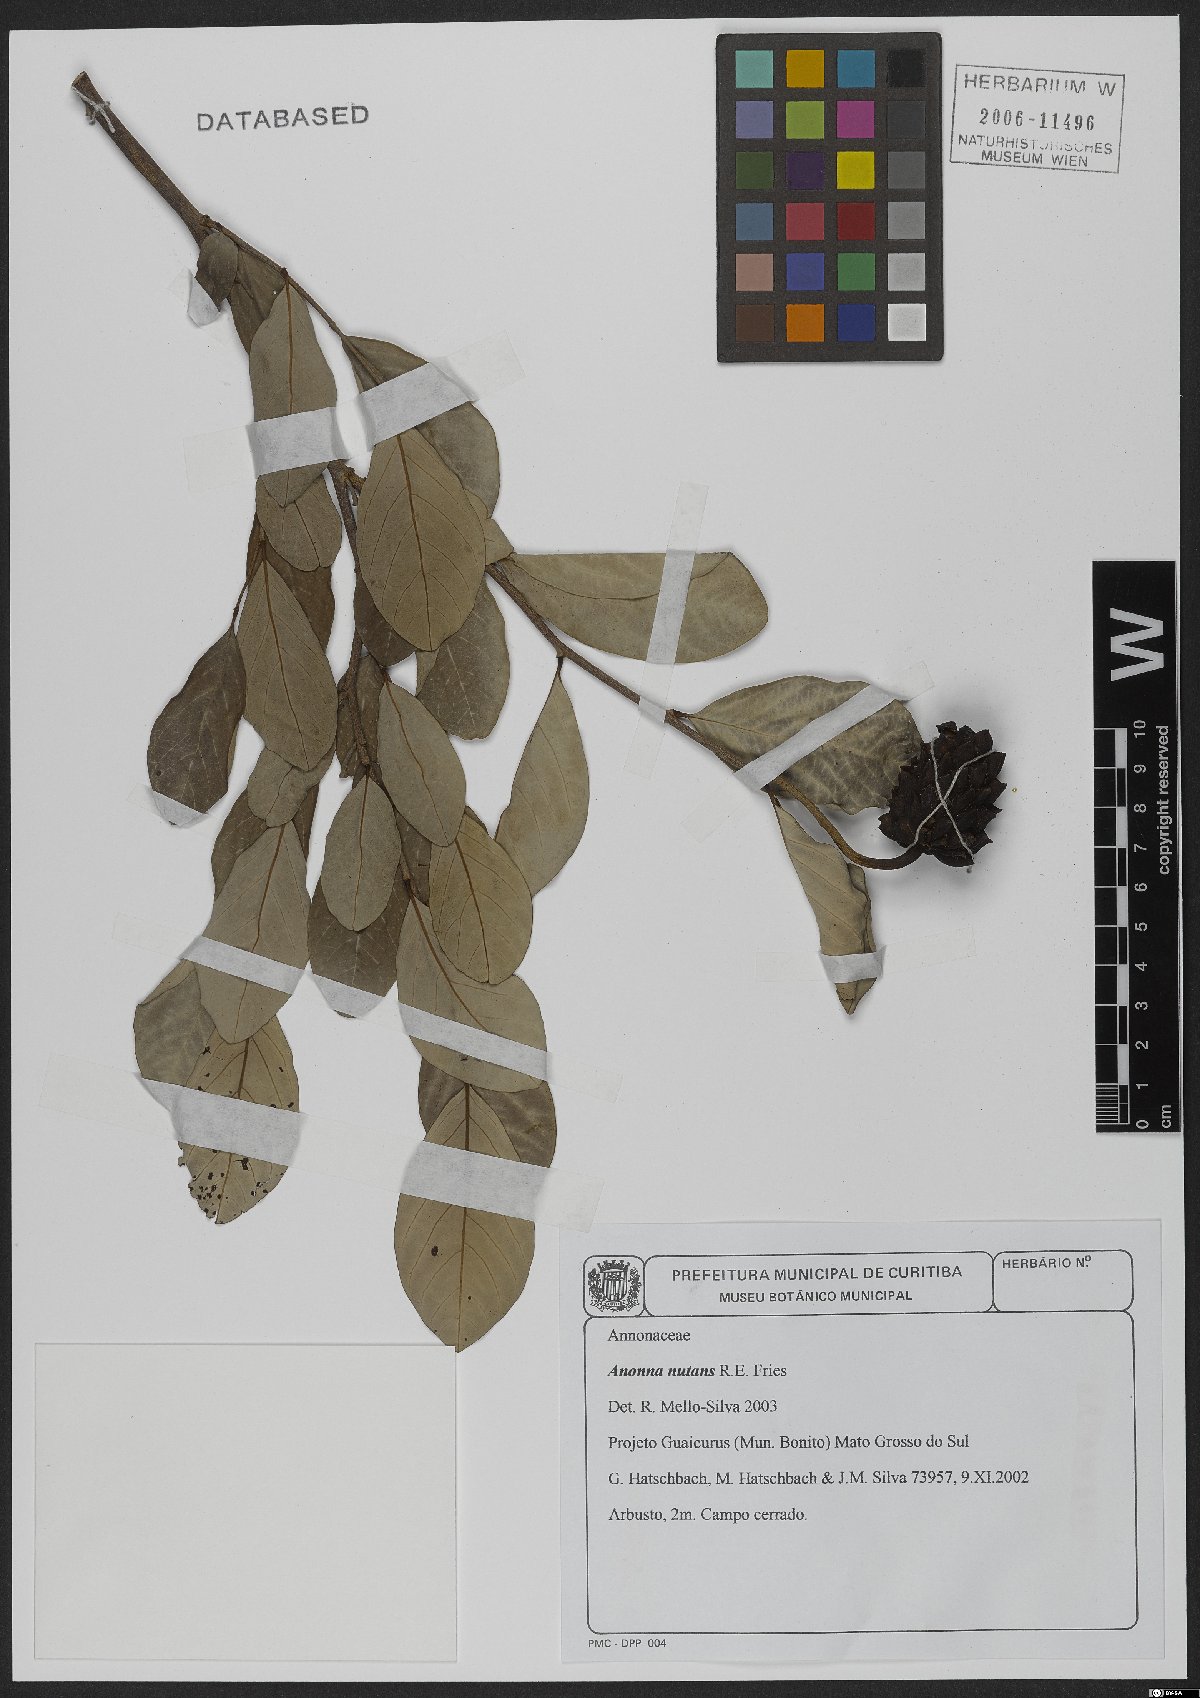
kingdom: Plantae
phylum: Tracheophyta
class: Magnoliopsida
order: Magnoliales
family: Annonaceae
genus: Annona
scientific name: Annona nutans
